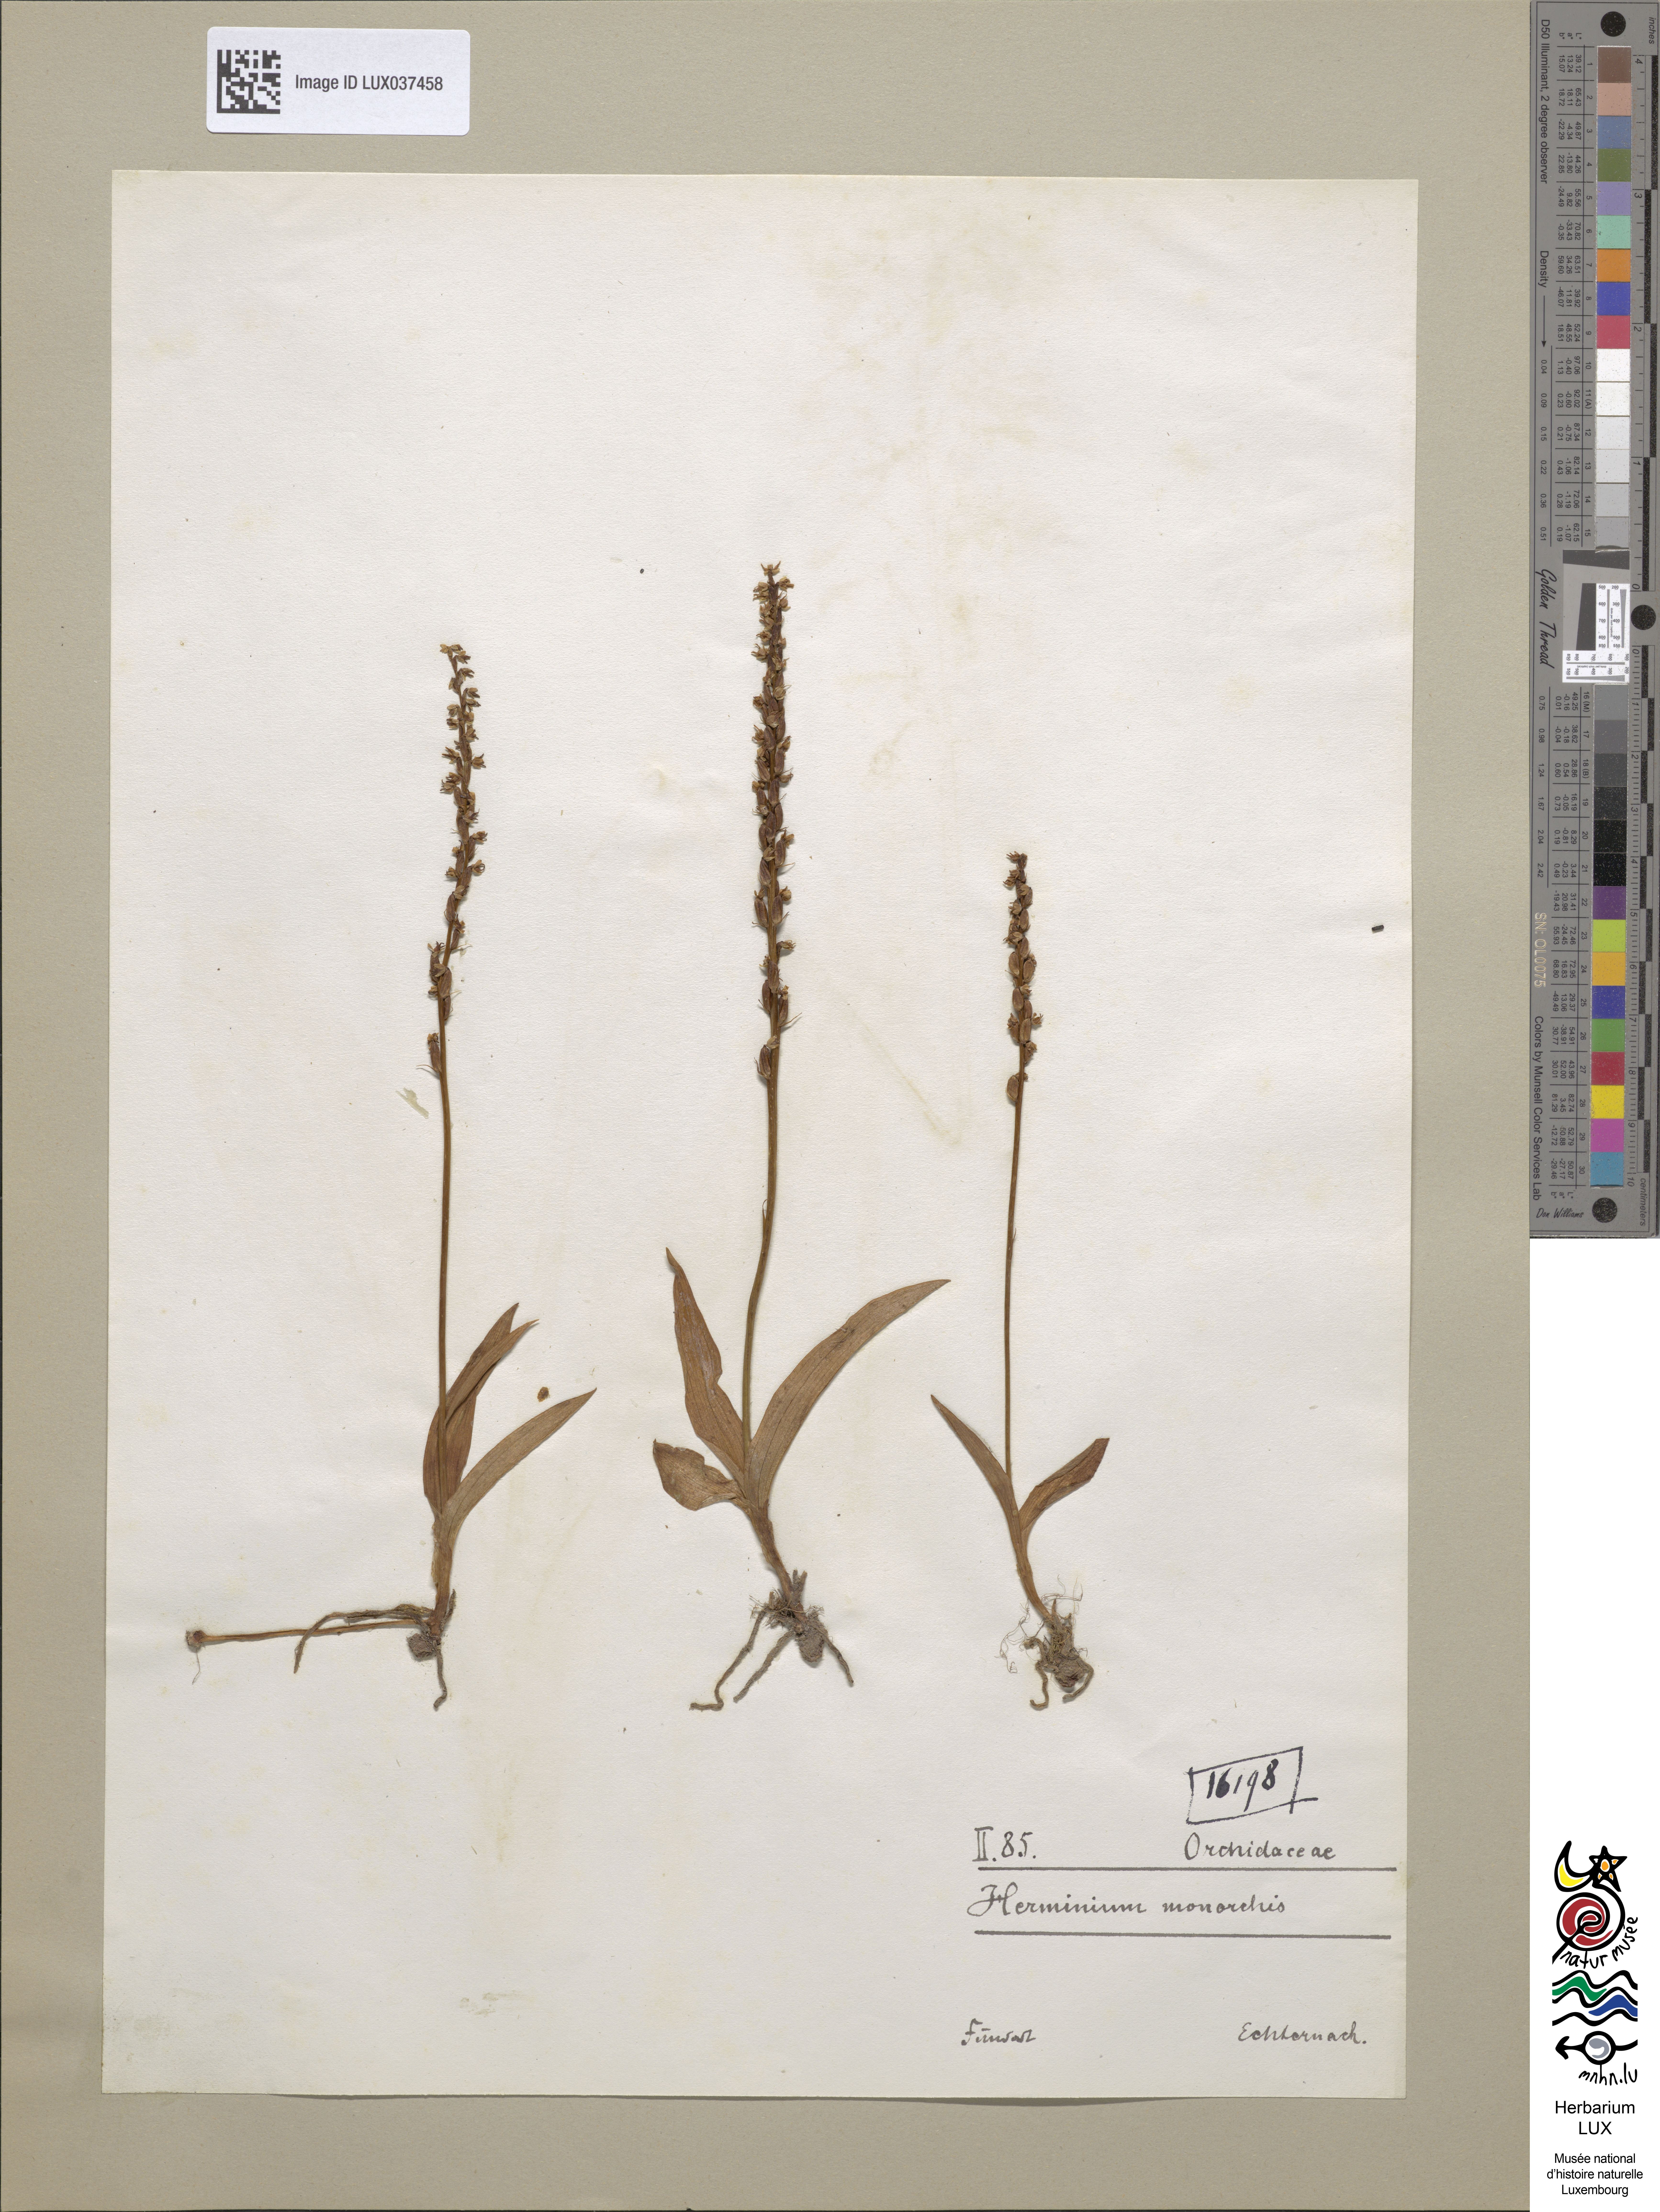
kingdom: Plantae
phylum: Tracheophyta
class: Liliopsida
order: Asparagales
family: Orchidaceae
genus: Herminium
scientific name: Herminium monorchis
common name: Musk orchid
